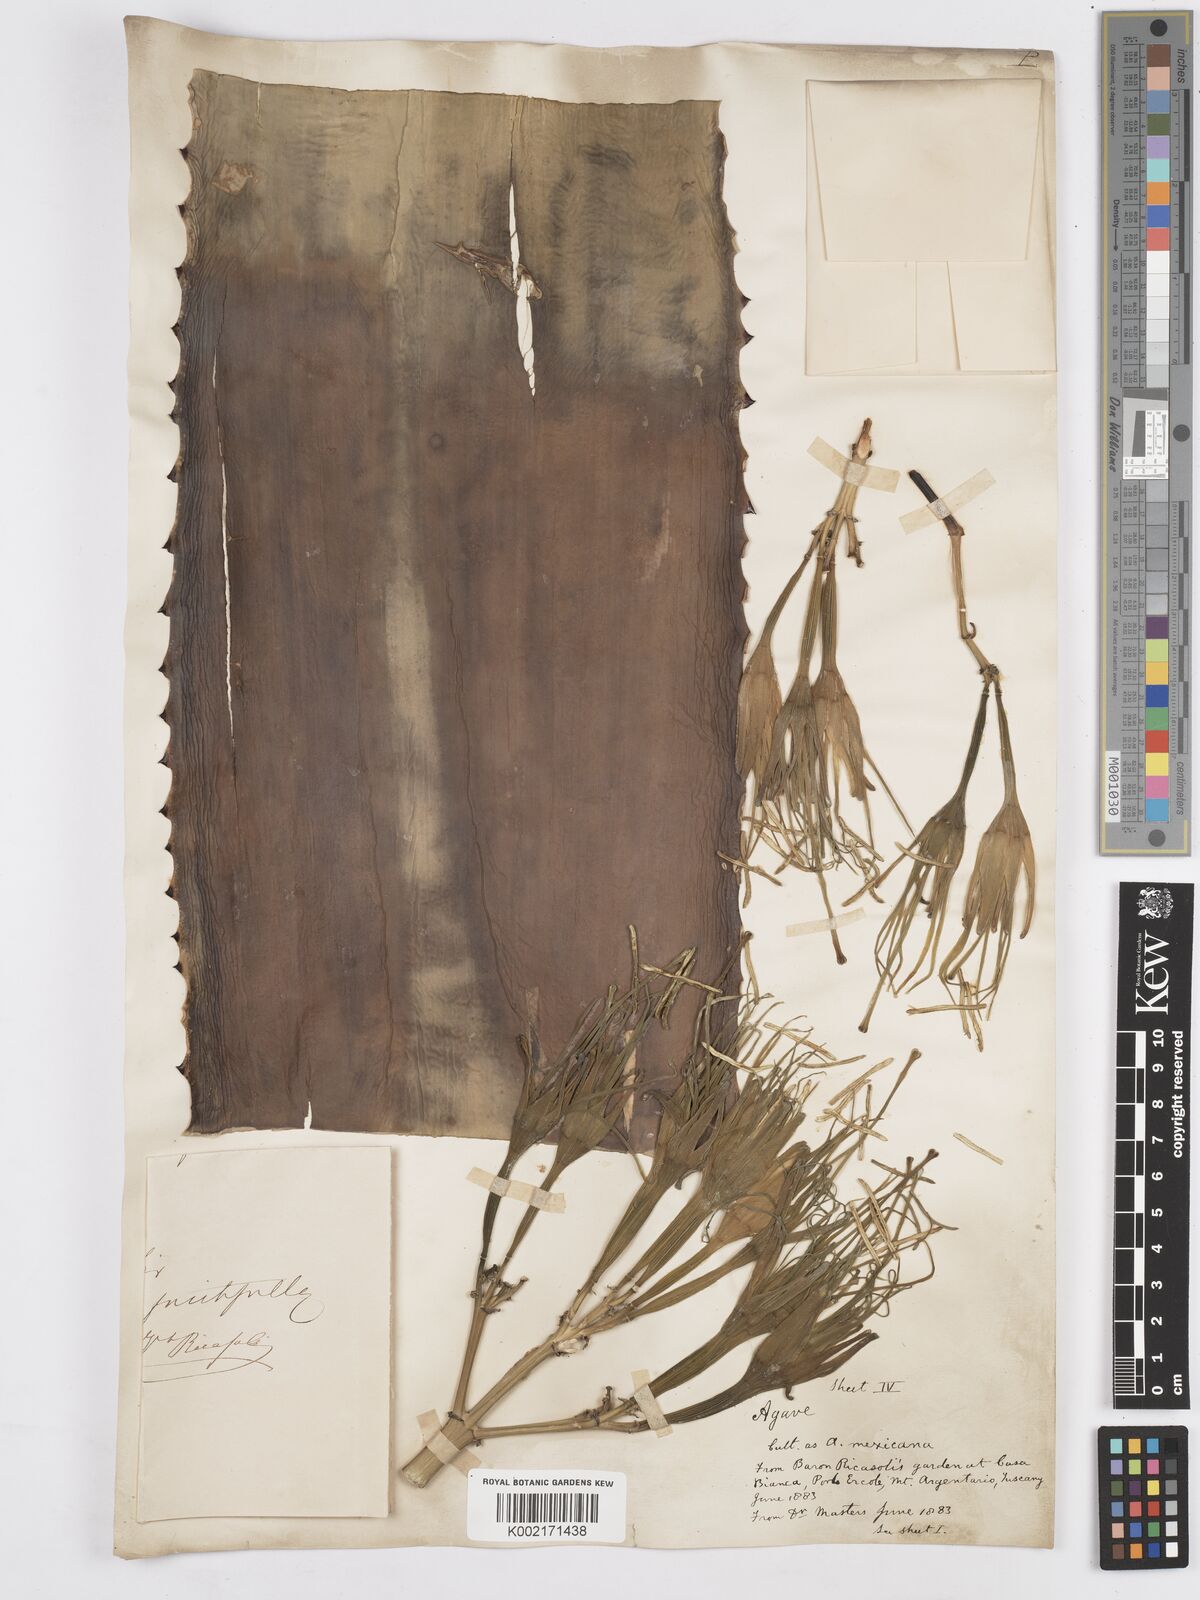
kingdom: Plantae
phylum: Tracheophyta
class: Liliopsida
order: Asparagales
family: Asparagaceae
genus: Agave
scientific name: Agave
